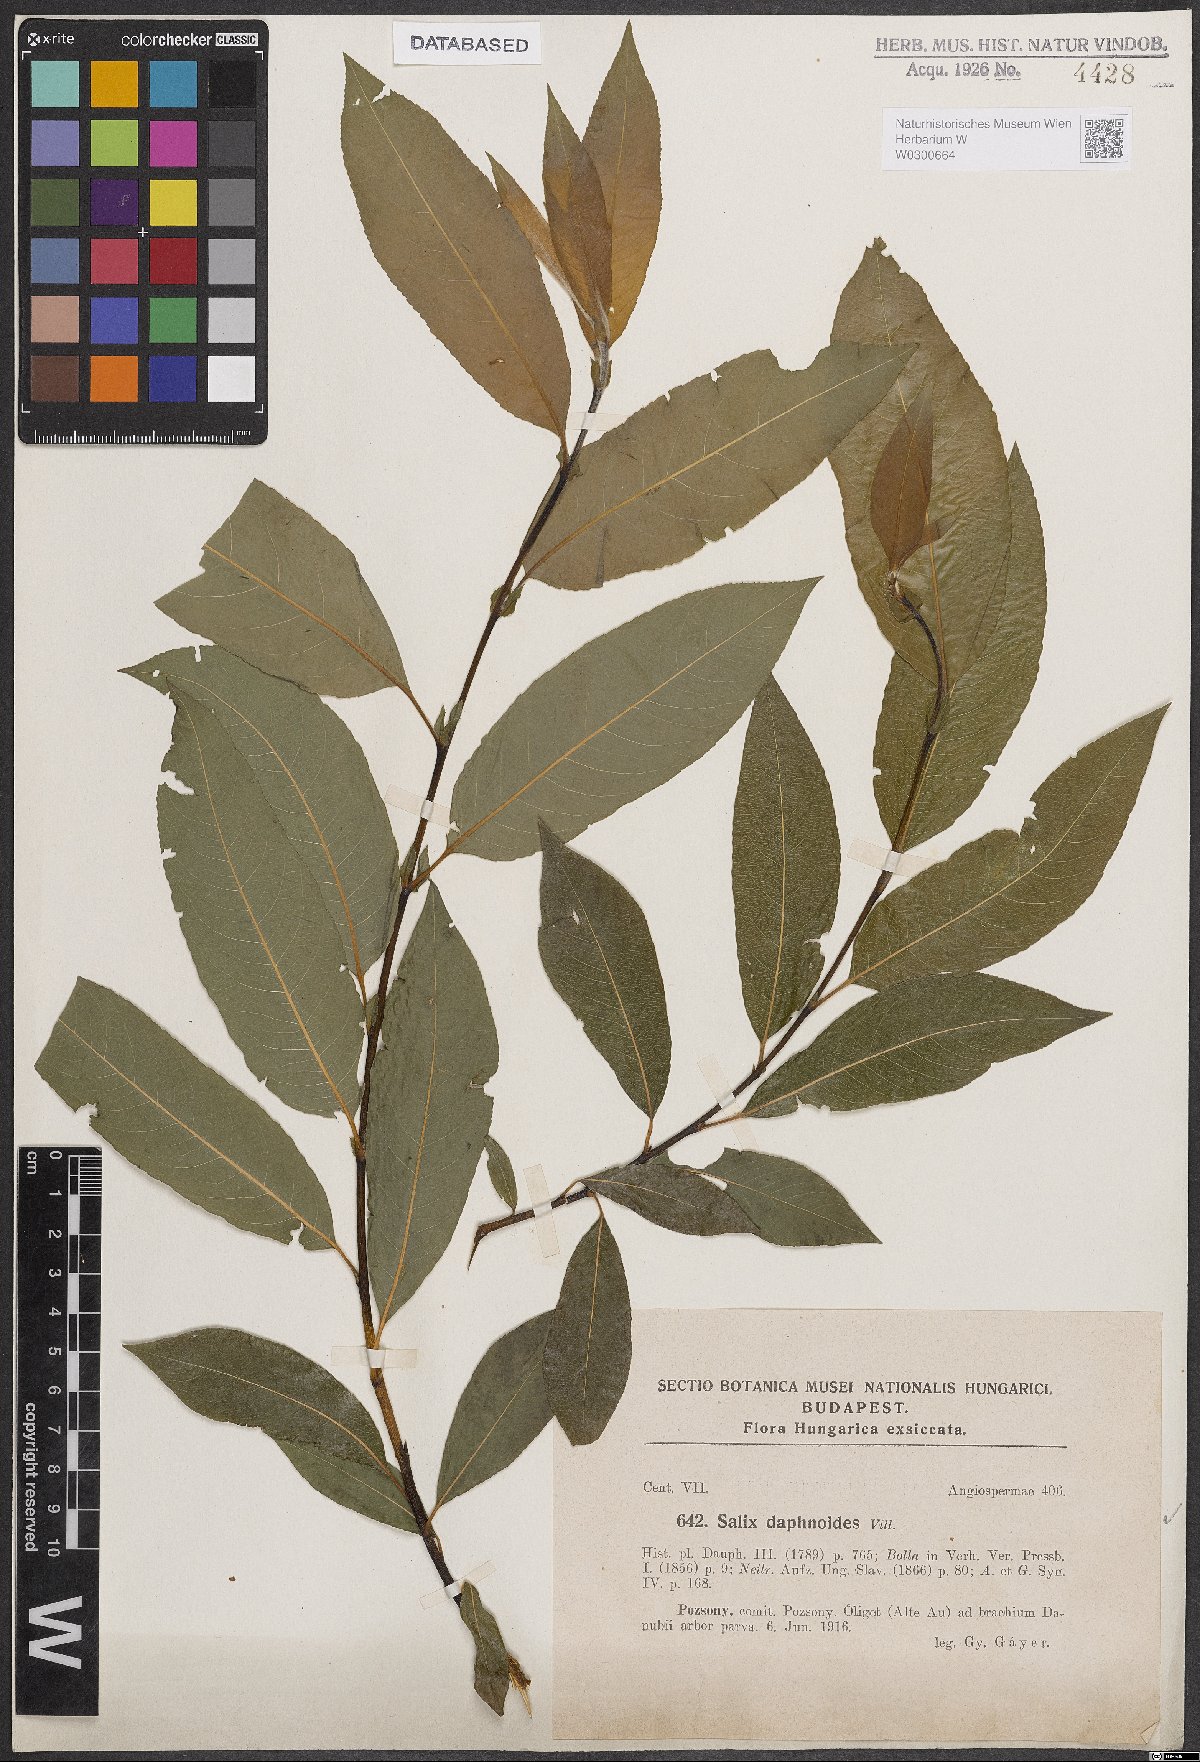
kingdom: Plantae
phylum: Tracheophyta
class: Magnoliopsida
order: Malpighiales
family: Salicaceae
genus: Salix
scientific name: Salix daphnoides
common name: European violet-willow
